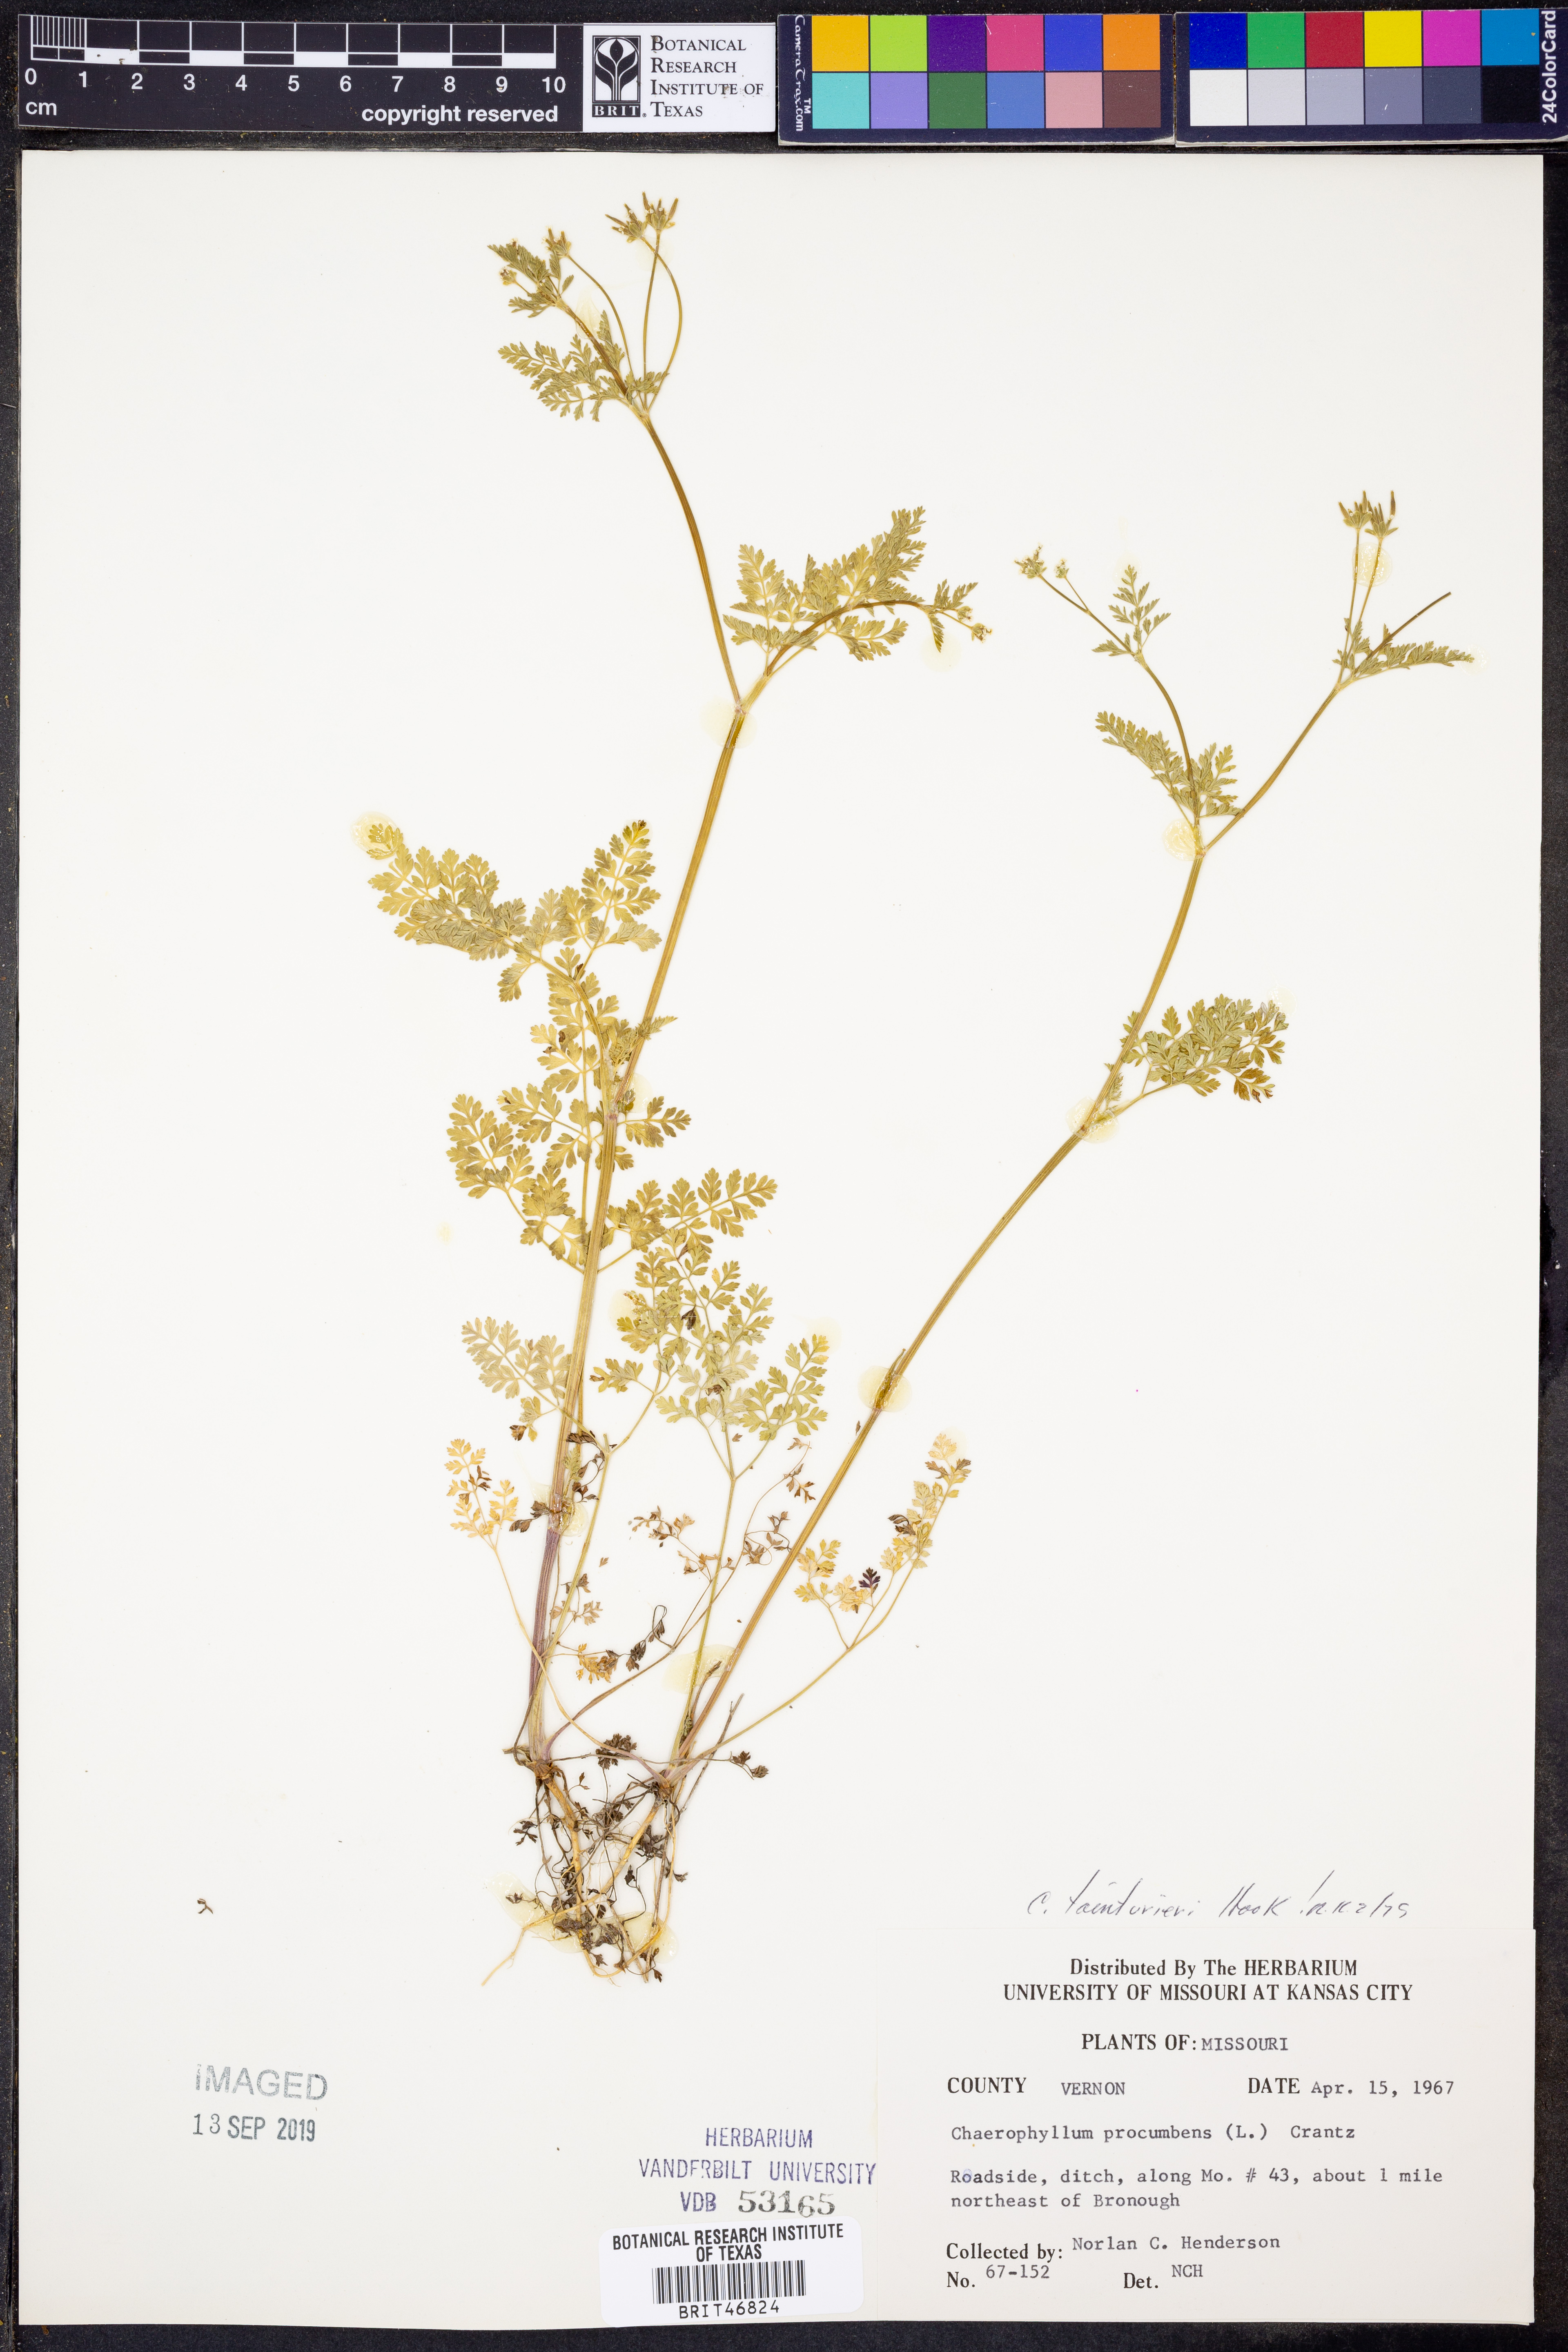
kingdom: Plantae
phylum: Tracheophyta
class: Magnoliopsida
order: Apiales
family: Apiaceae
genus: Chaerophyllum
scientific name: Chaerophyllum procumbens
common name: Spreading chervil
